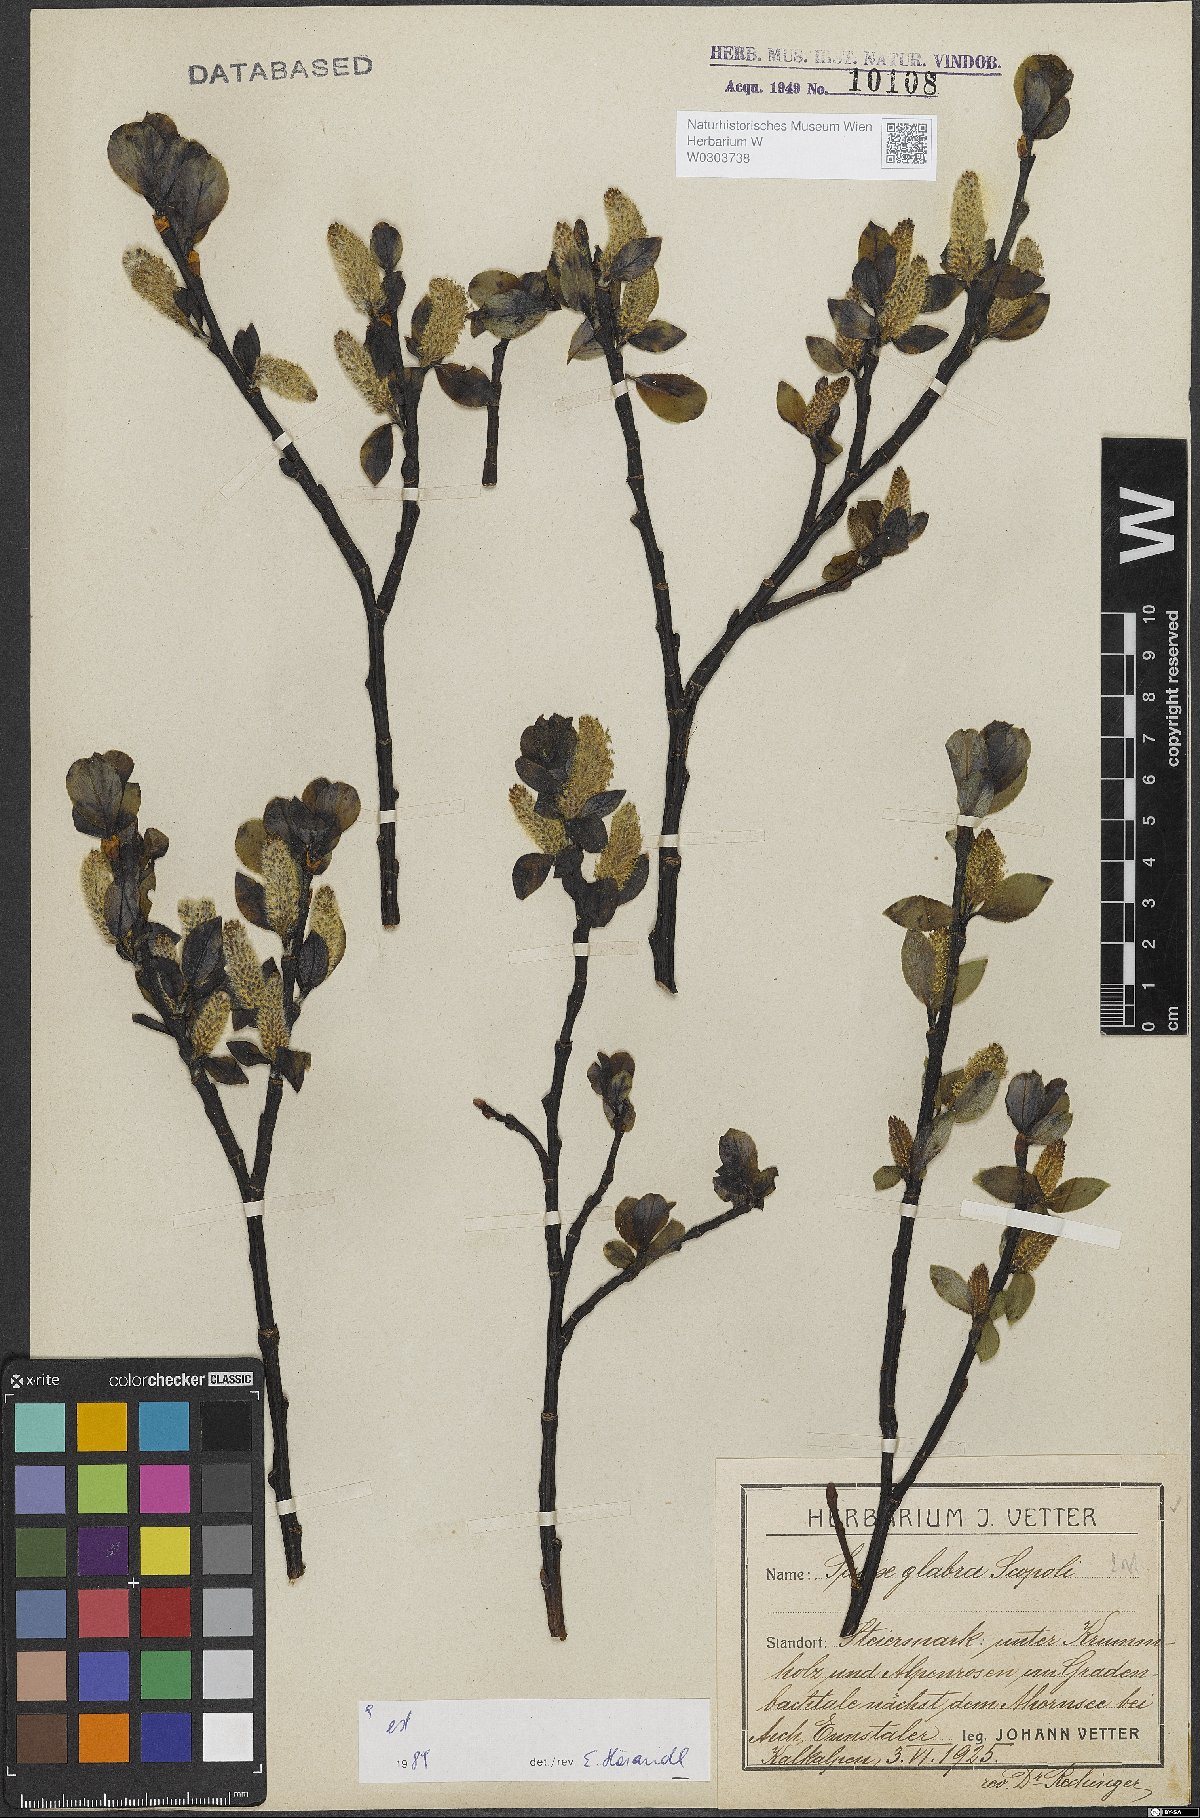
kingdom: Plantae
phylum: Tracheophyta
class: Magnoliopsida
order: Malpighiales
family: Salicaceae
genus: Salix
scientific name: Salix glabra
